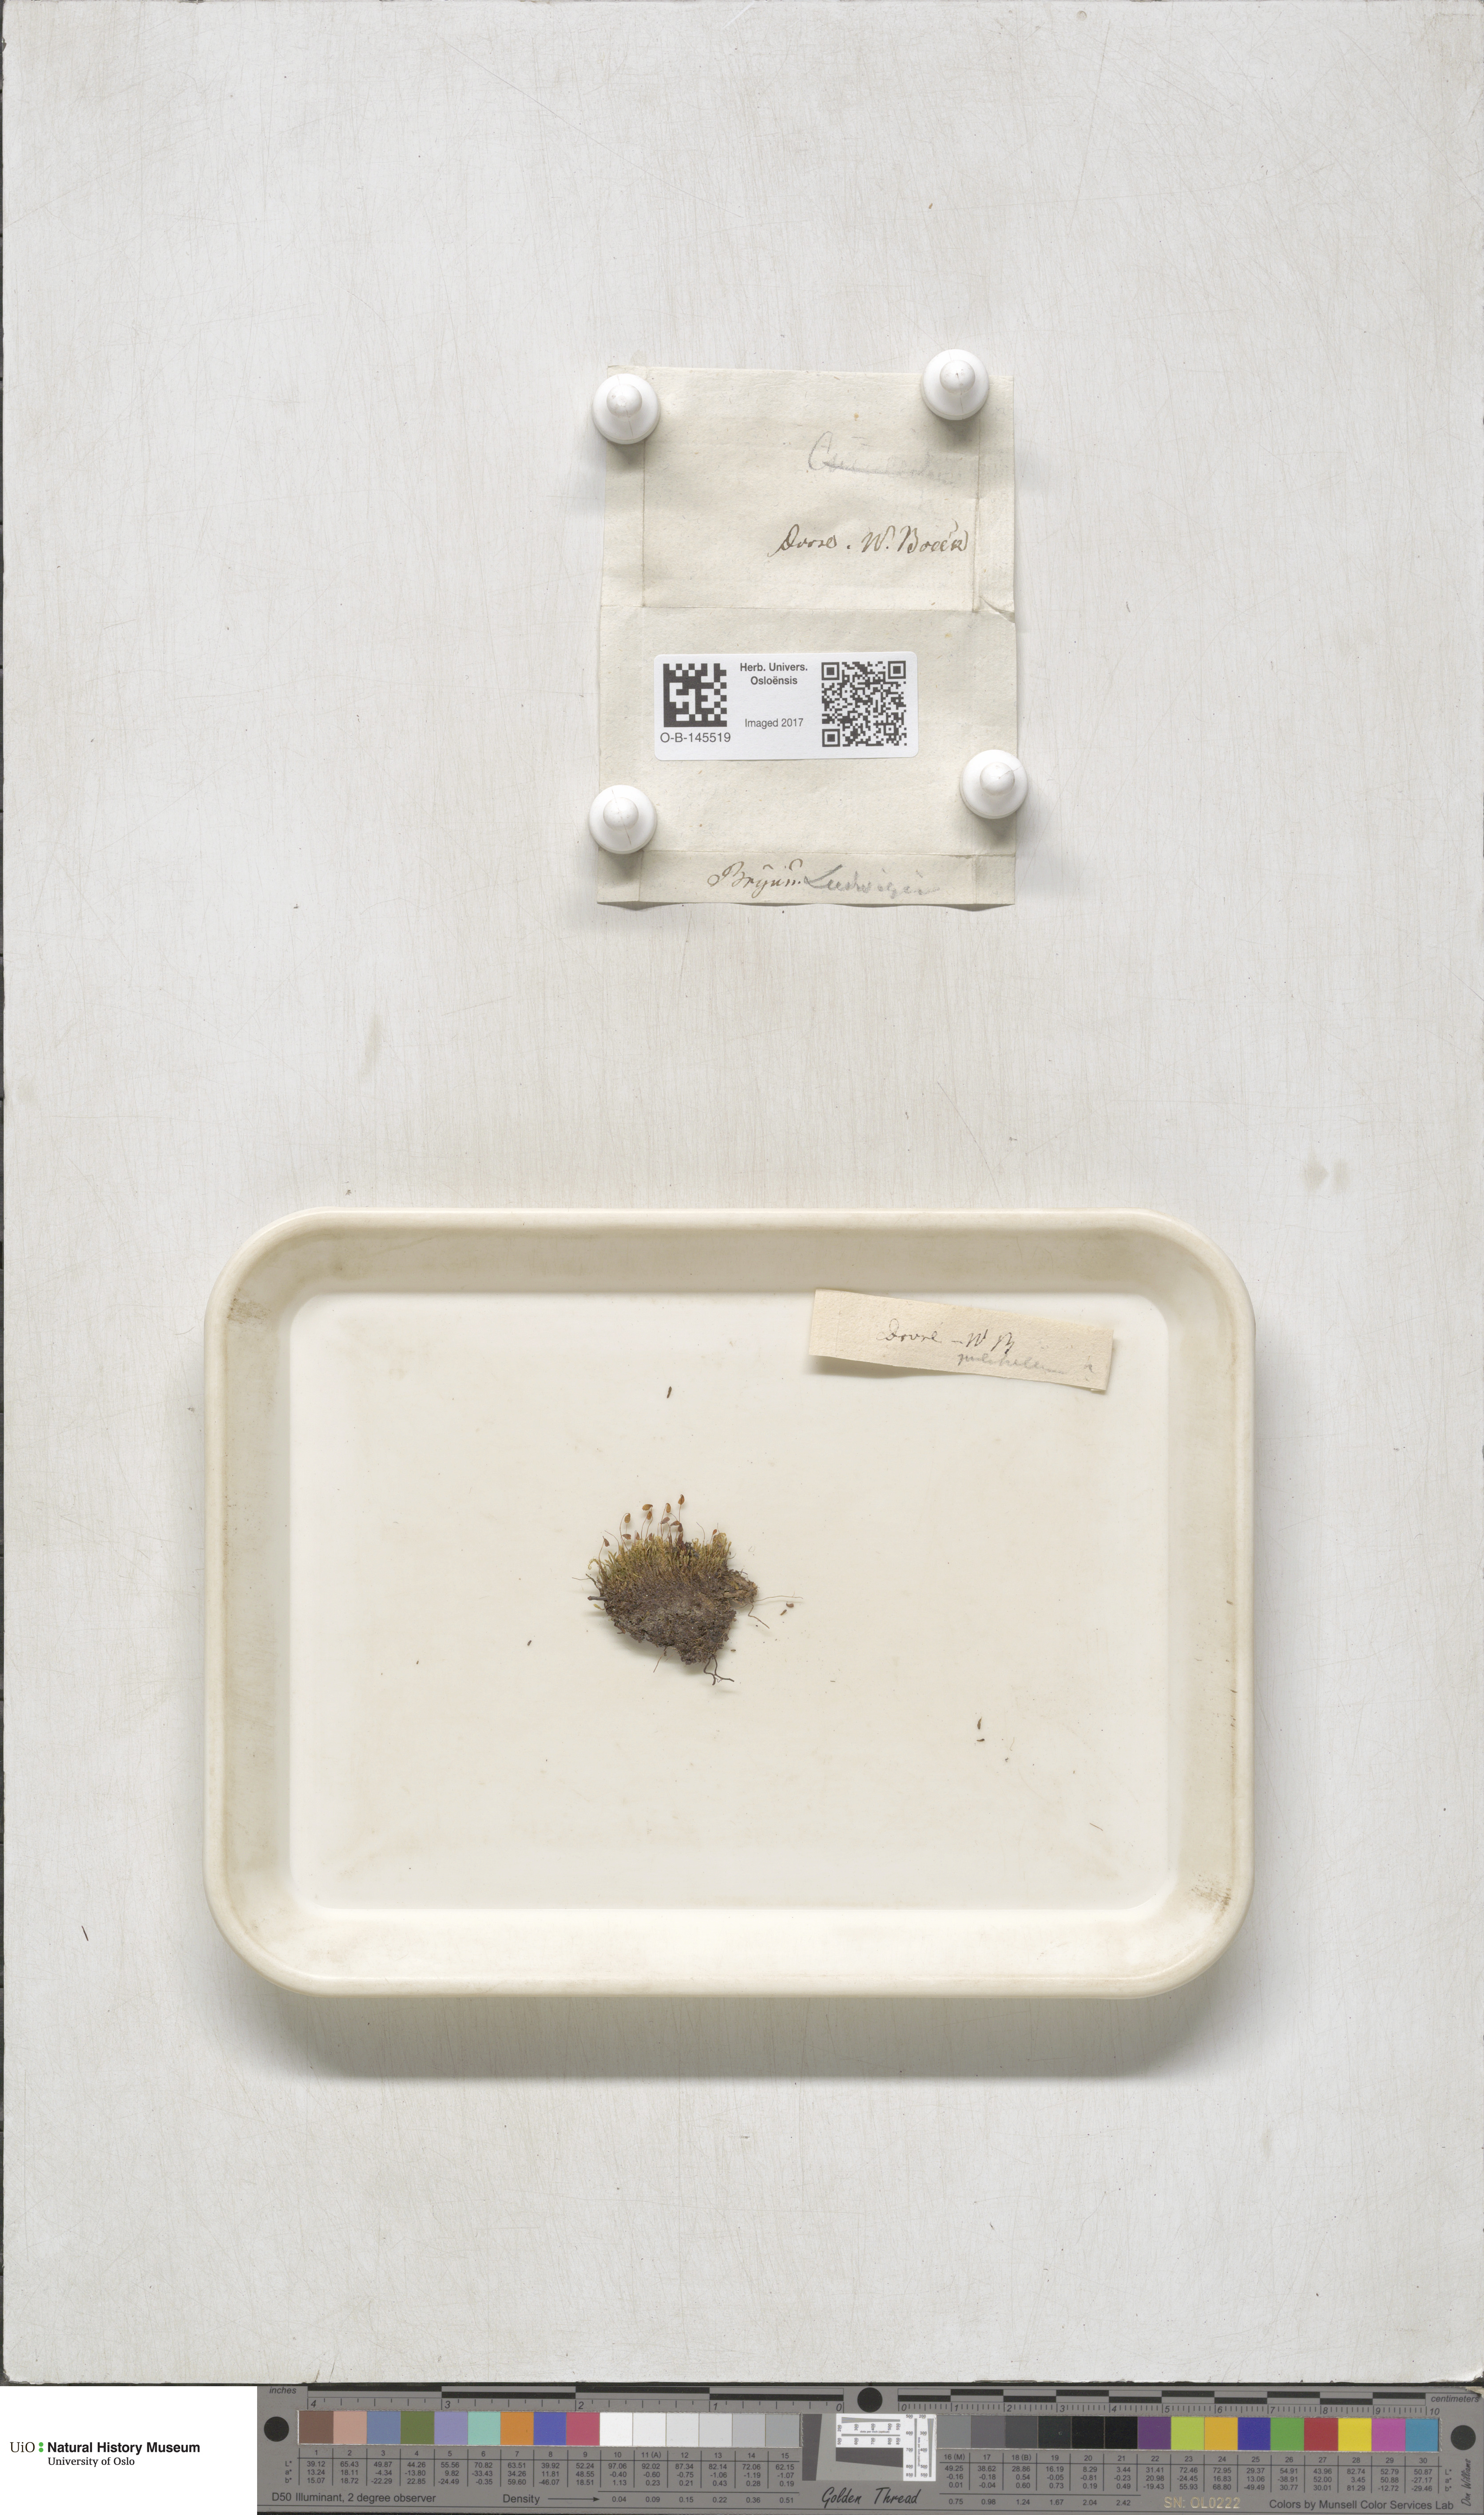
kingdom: Plantae
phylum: Bryophyta
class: Bryopsida
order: Bryales
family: Mniaceae
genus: Pohlia
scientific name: Pohlia ludwigii
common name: Ludwig's thread-moss
